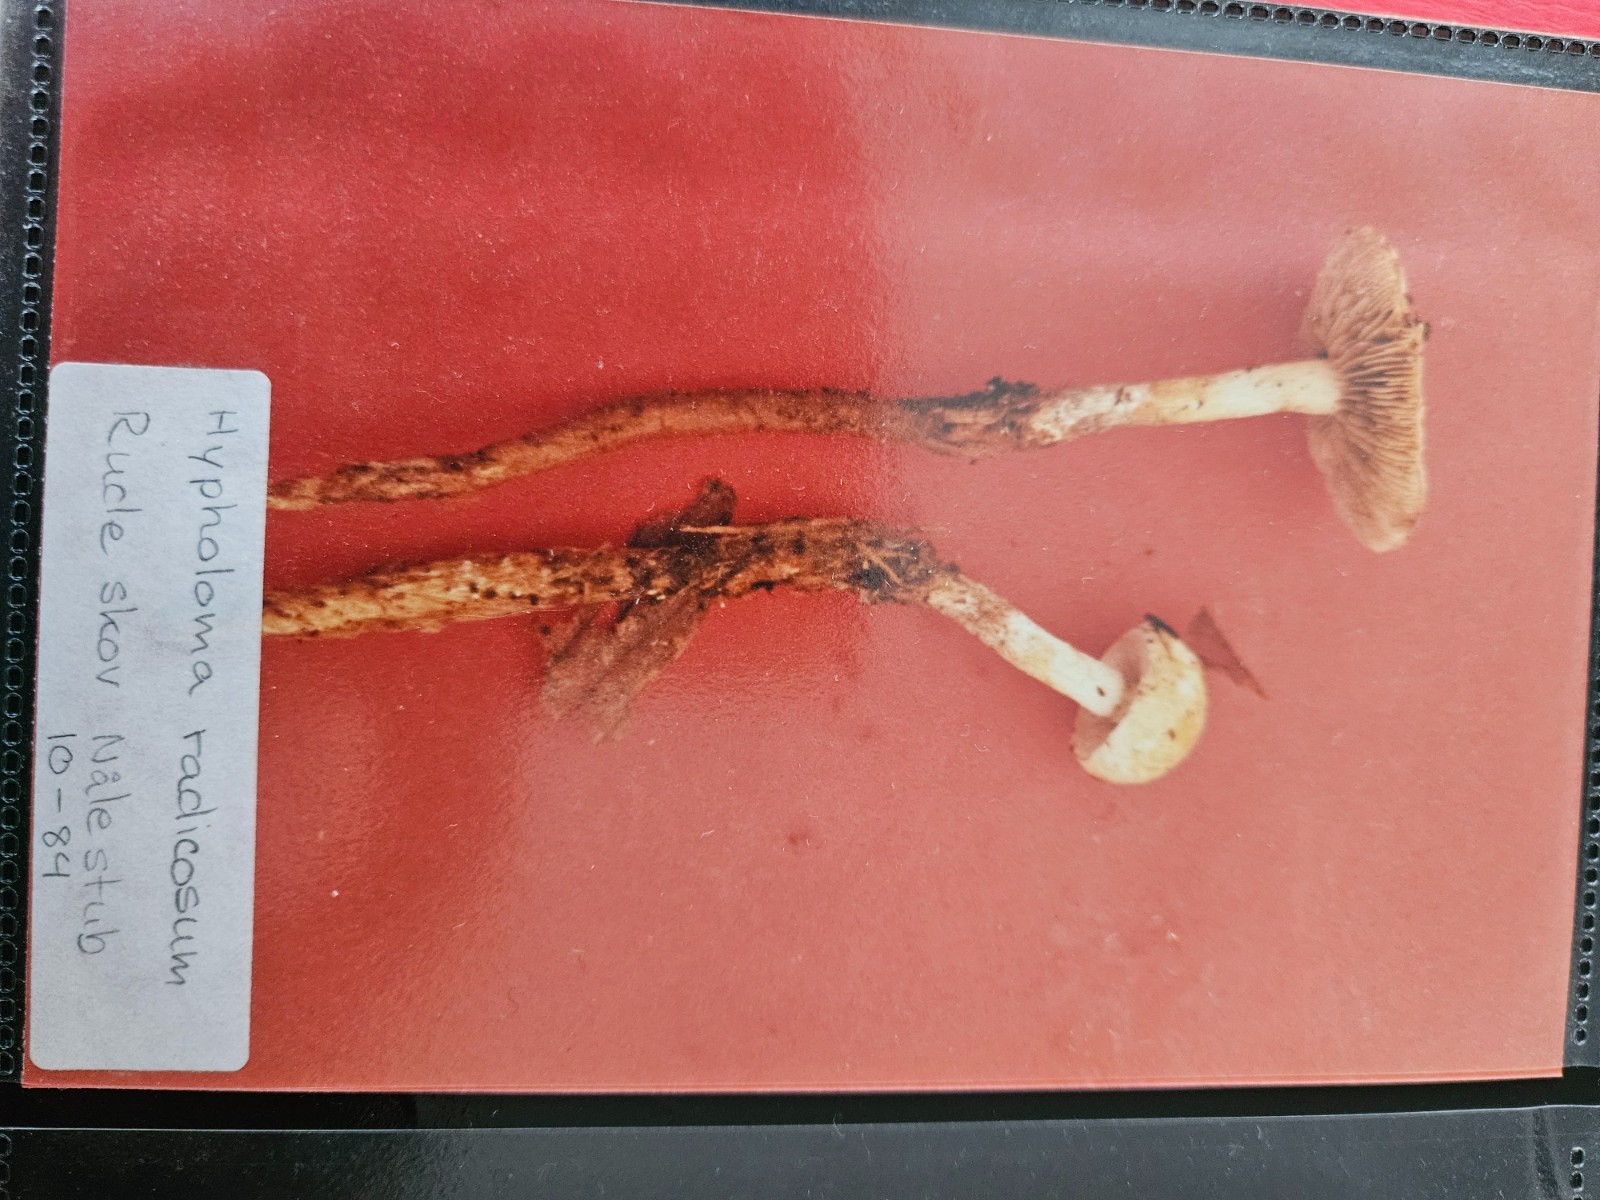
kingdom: Fungi
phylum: Basidiomycota
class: Agaricomycetes
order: Agaricales
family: Strophariaceae
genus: Hypholoma
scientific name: Hypholoma radicosum
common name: pælerods-svovlhat
